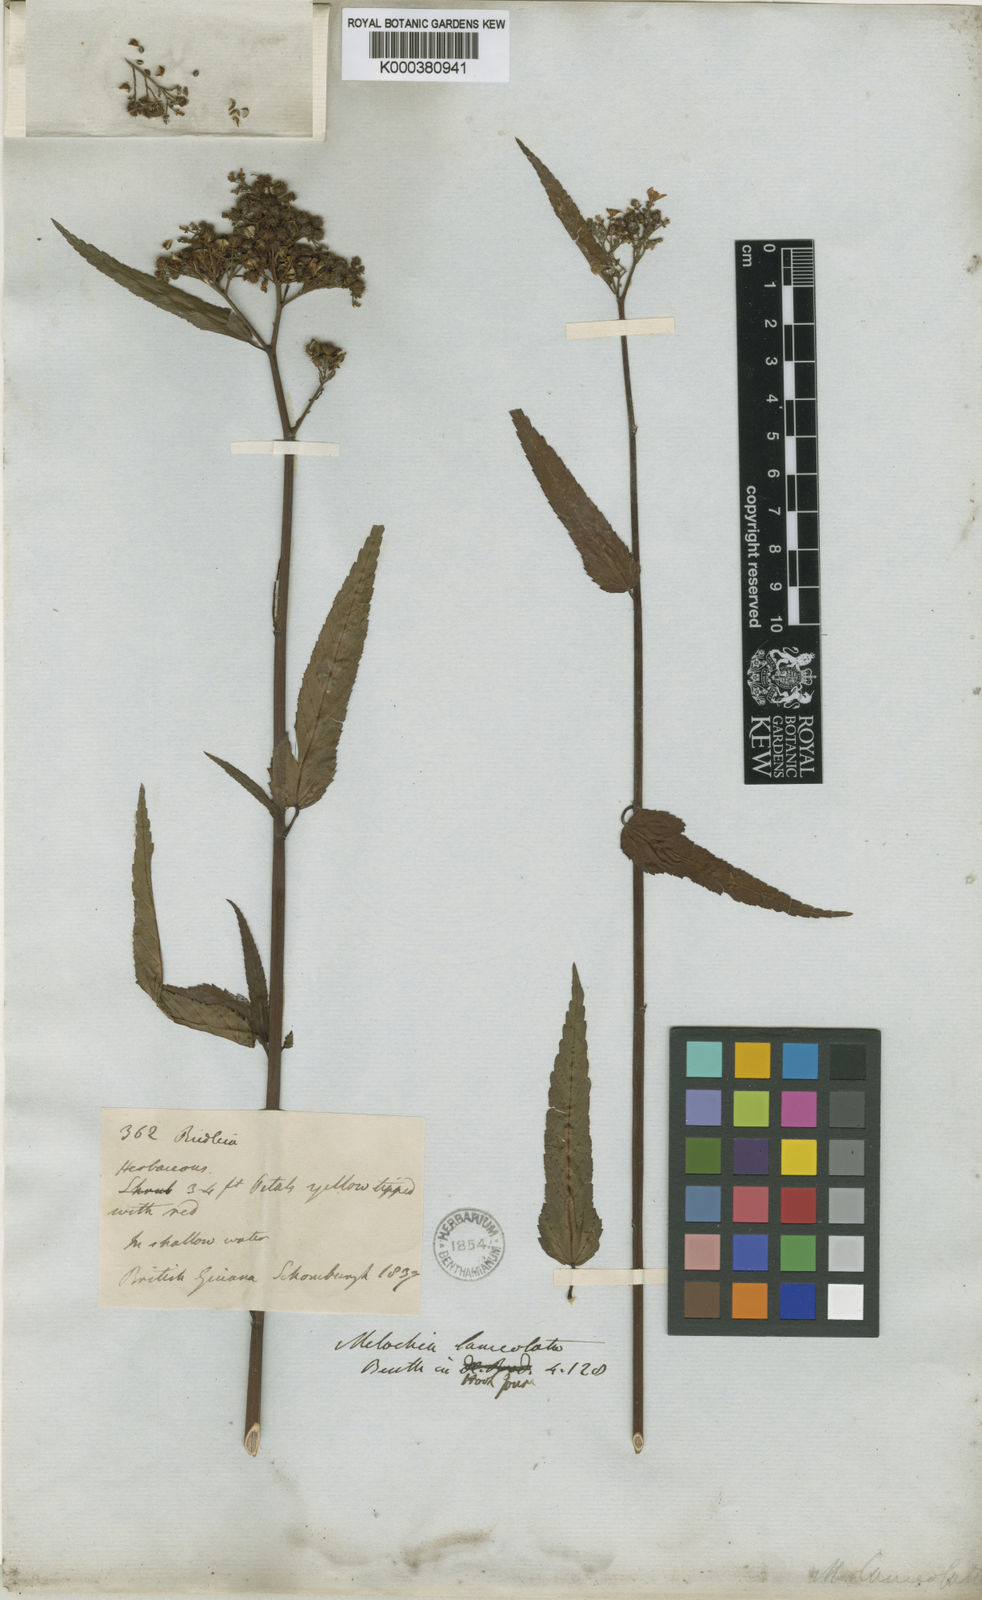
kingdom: Plantae
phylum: Tracheophyta
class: Magnoliopsida
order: Malvales
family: Malvaceae
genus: Melochia
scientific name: Melochia lanceolata
